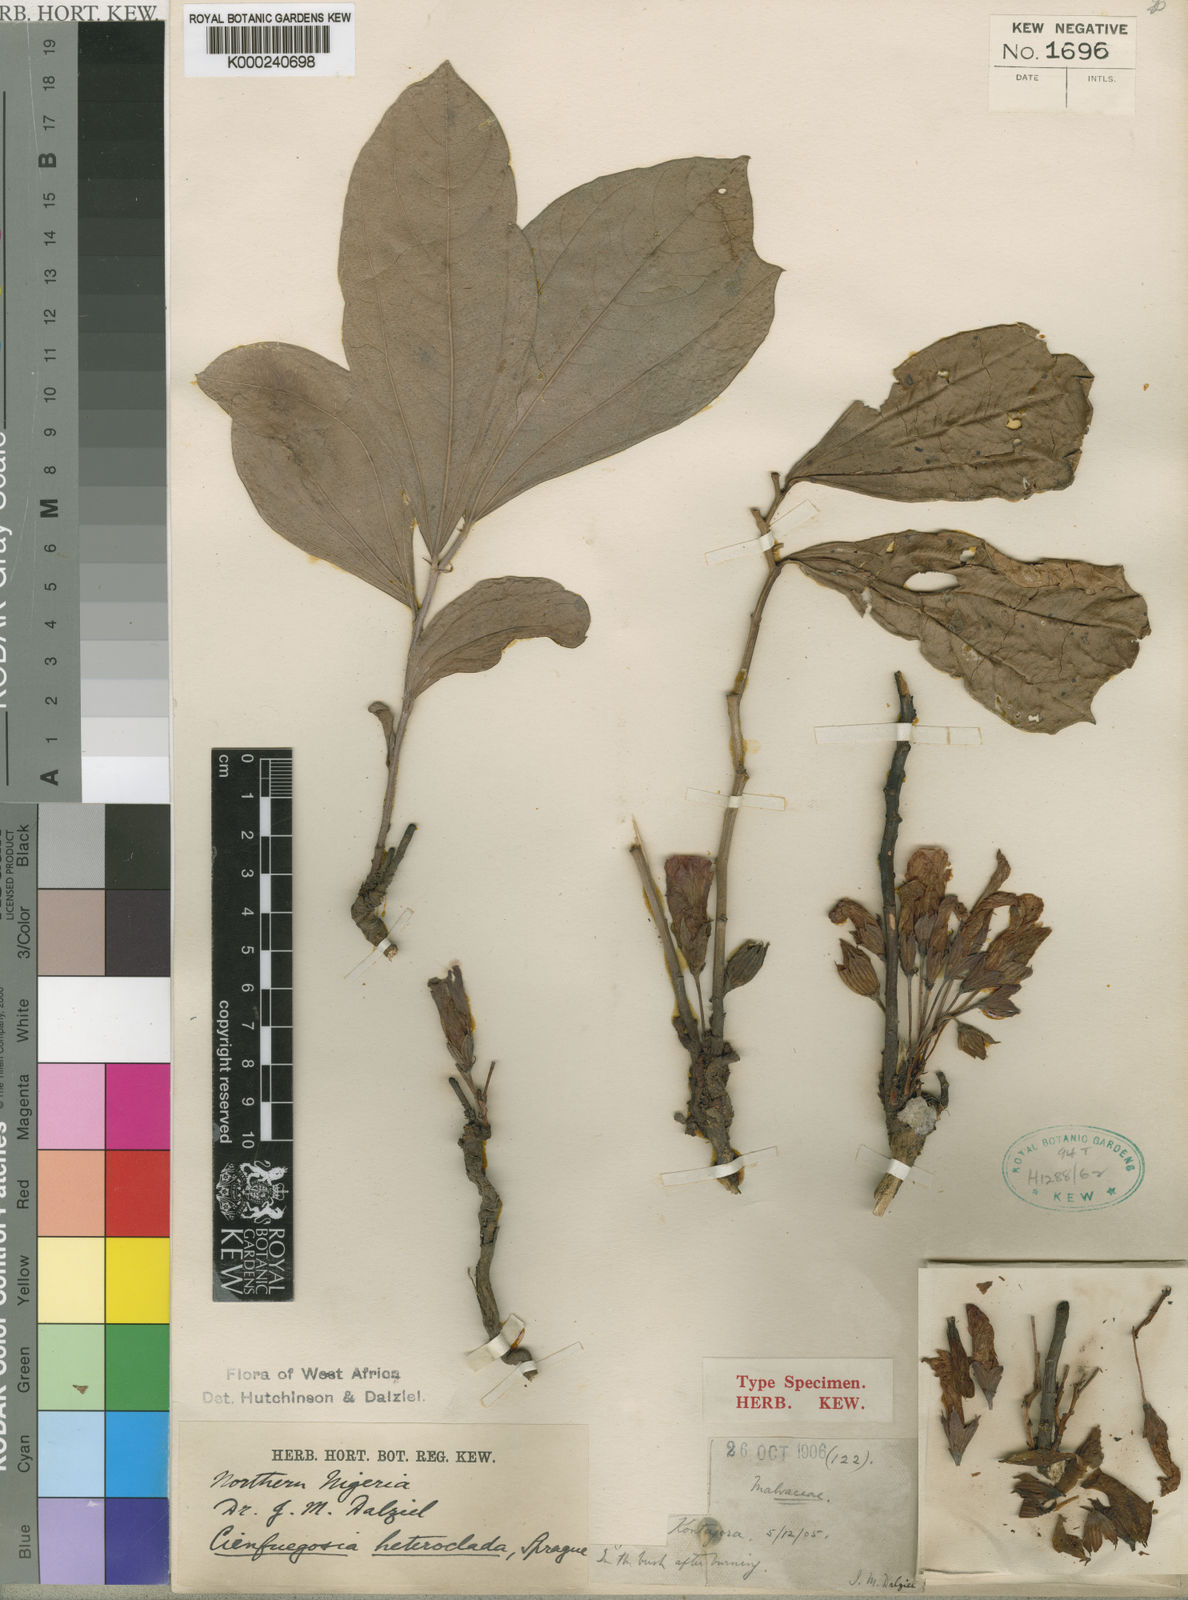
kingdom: Plantae
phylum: Tracheophyta
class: Magnoliopsida
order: Malvales
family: Malvaceae
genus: Cienfuegosia
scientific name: Cienfuegosia heteroclada
